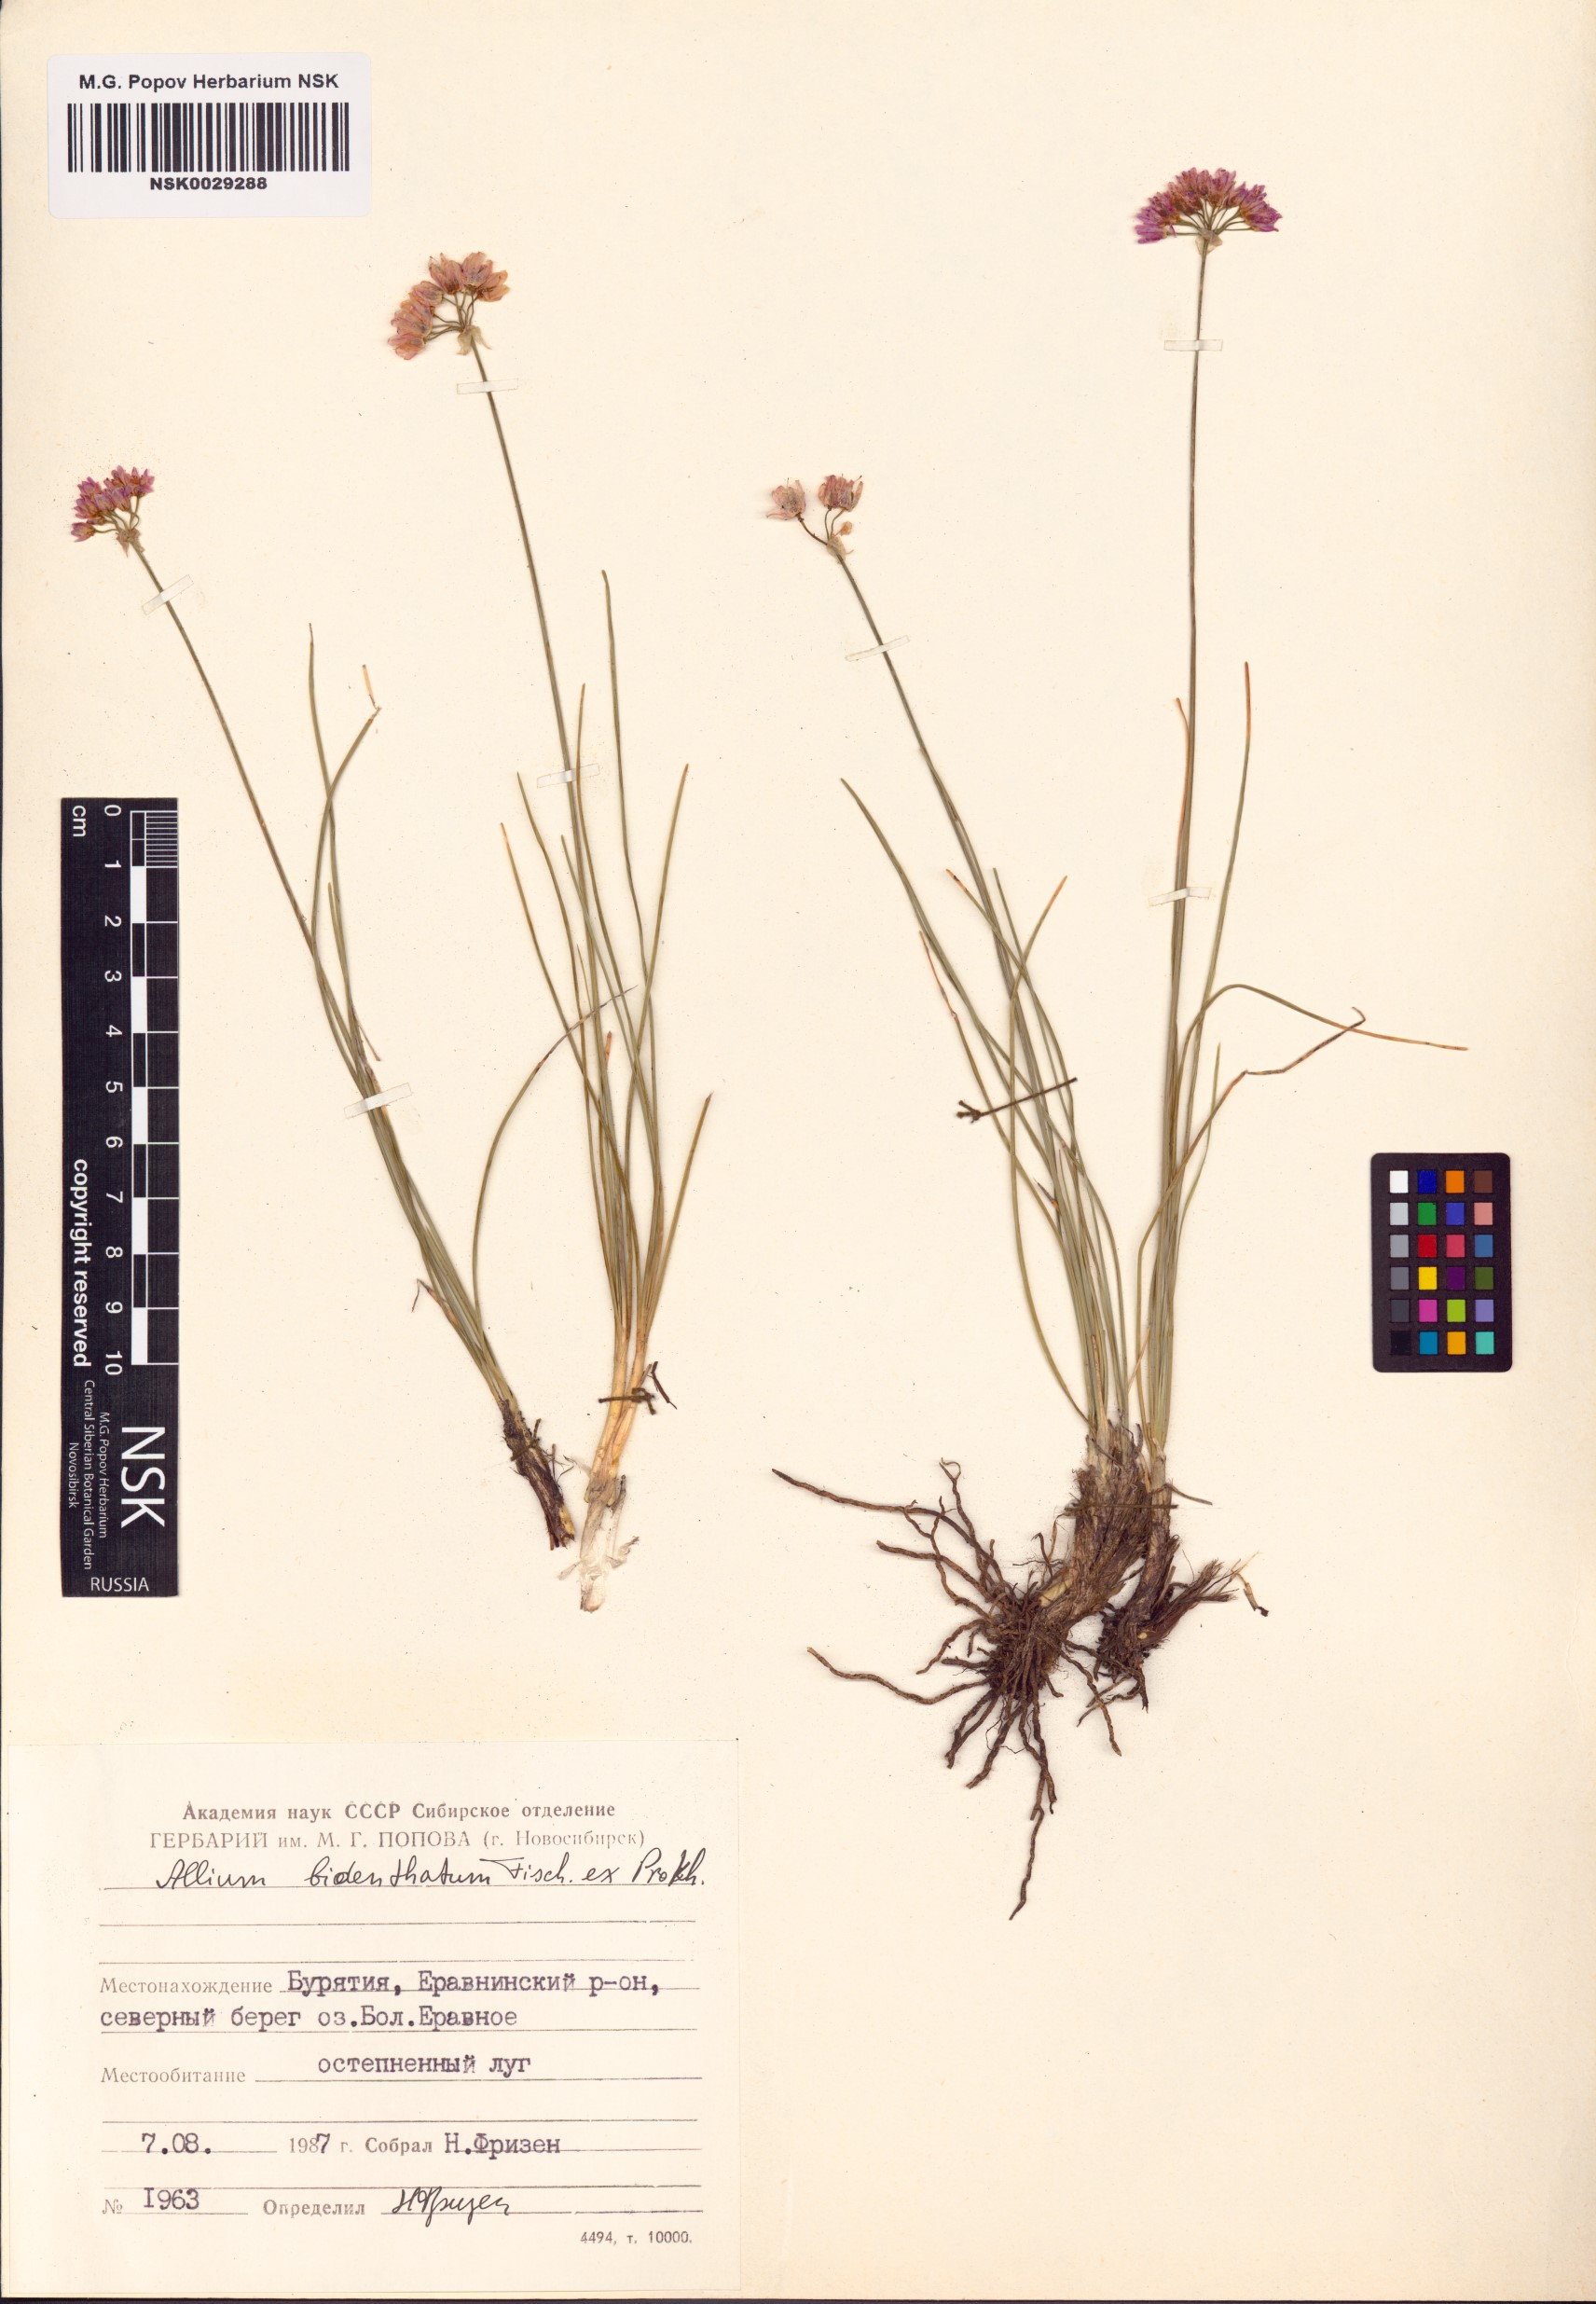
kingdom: Plantae
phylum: Tracheophyta
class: Liliopsida
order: Asparagales
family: Amaryllidaceae
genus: Allium
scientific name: Allium bidentatum
